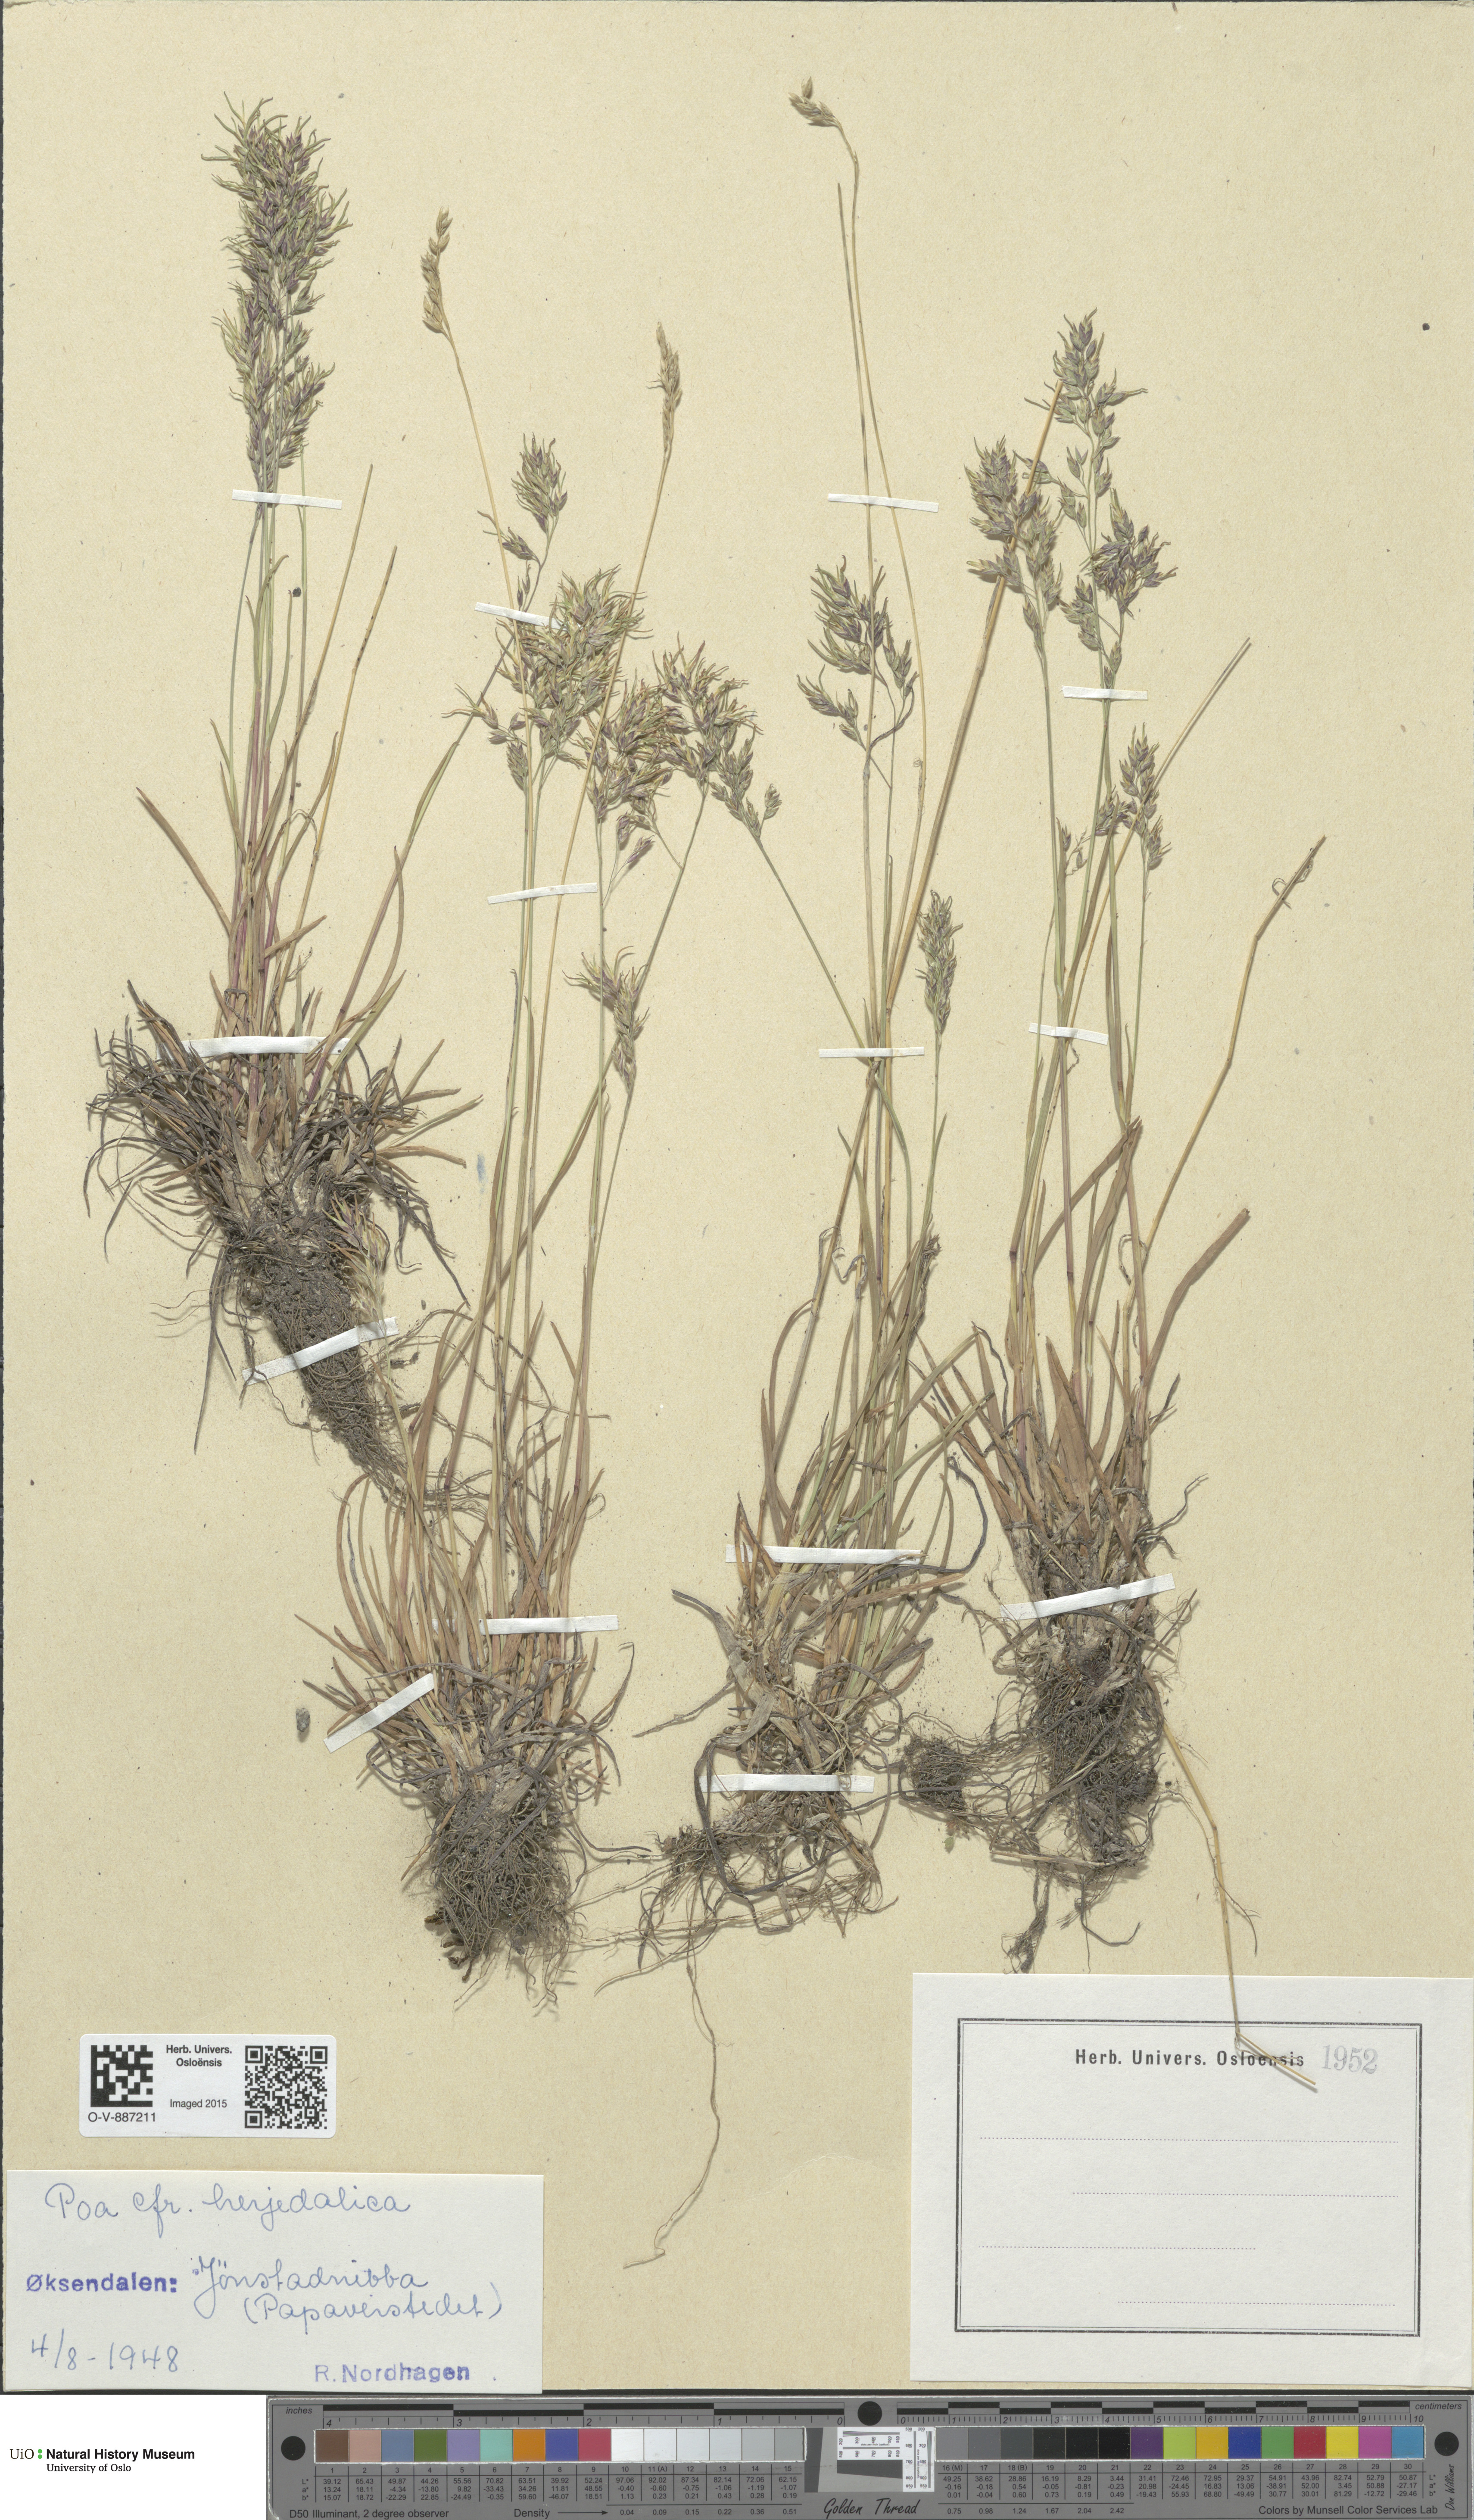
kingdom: Plantae
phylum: Tracheophyta
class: Liliopsida
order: Poales
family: Poaceae
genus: Poa
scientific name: Poa herjedalica
